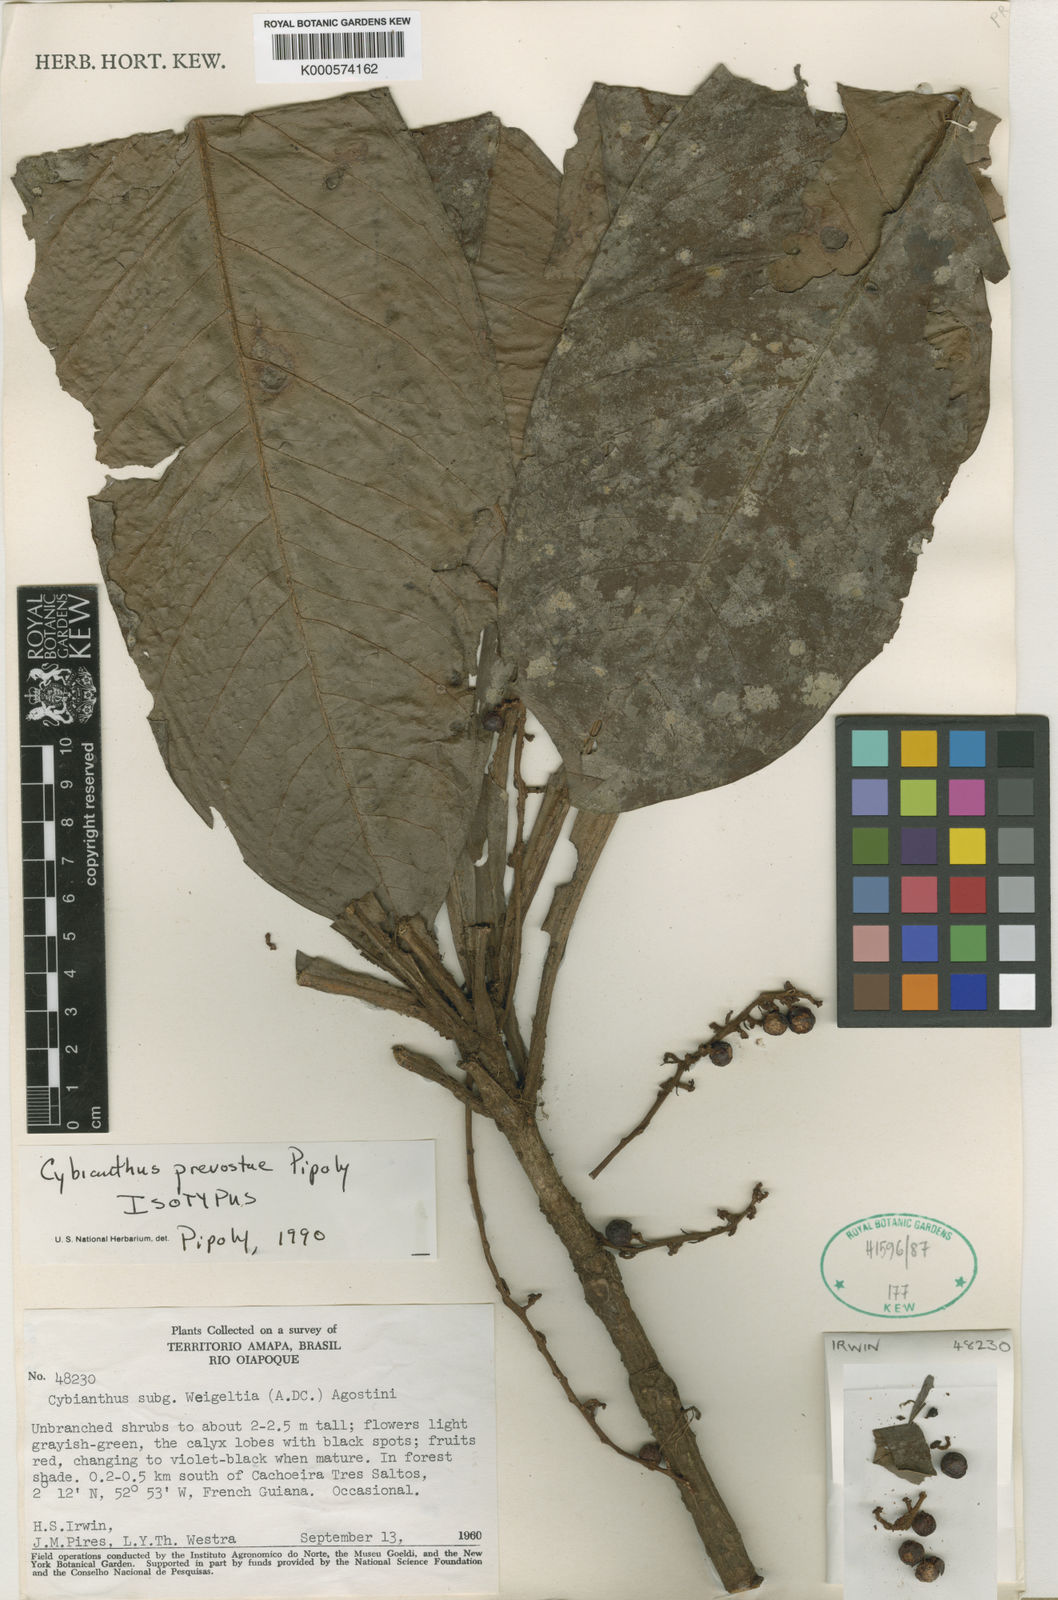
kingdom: Plantae
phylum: Tracheophyta
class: Magnoliopsida
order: Ericales
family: Primulaceae
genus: Cybianthus
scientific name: Cybianthus prevostiae
